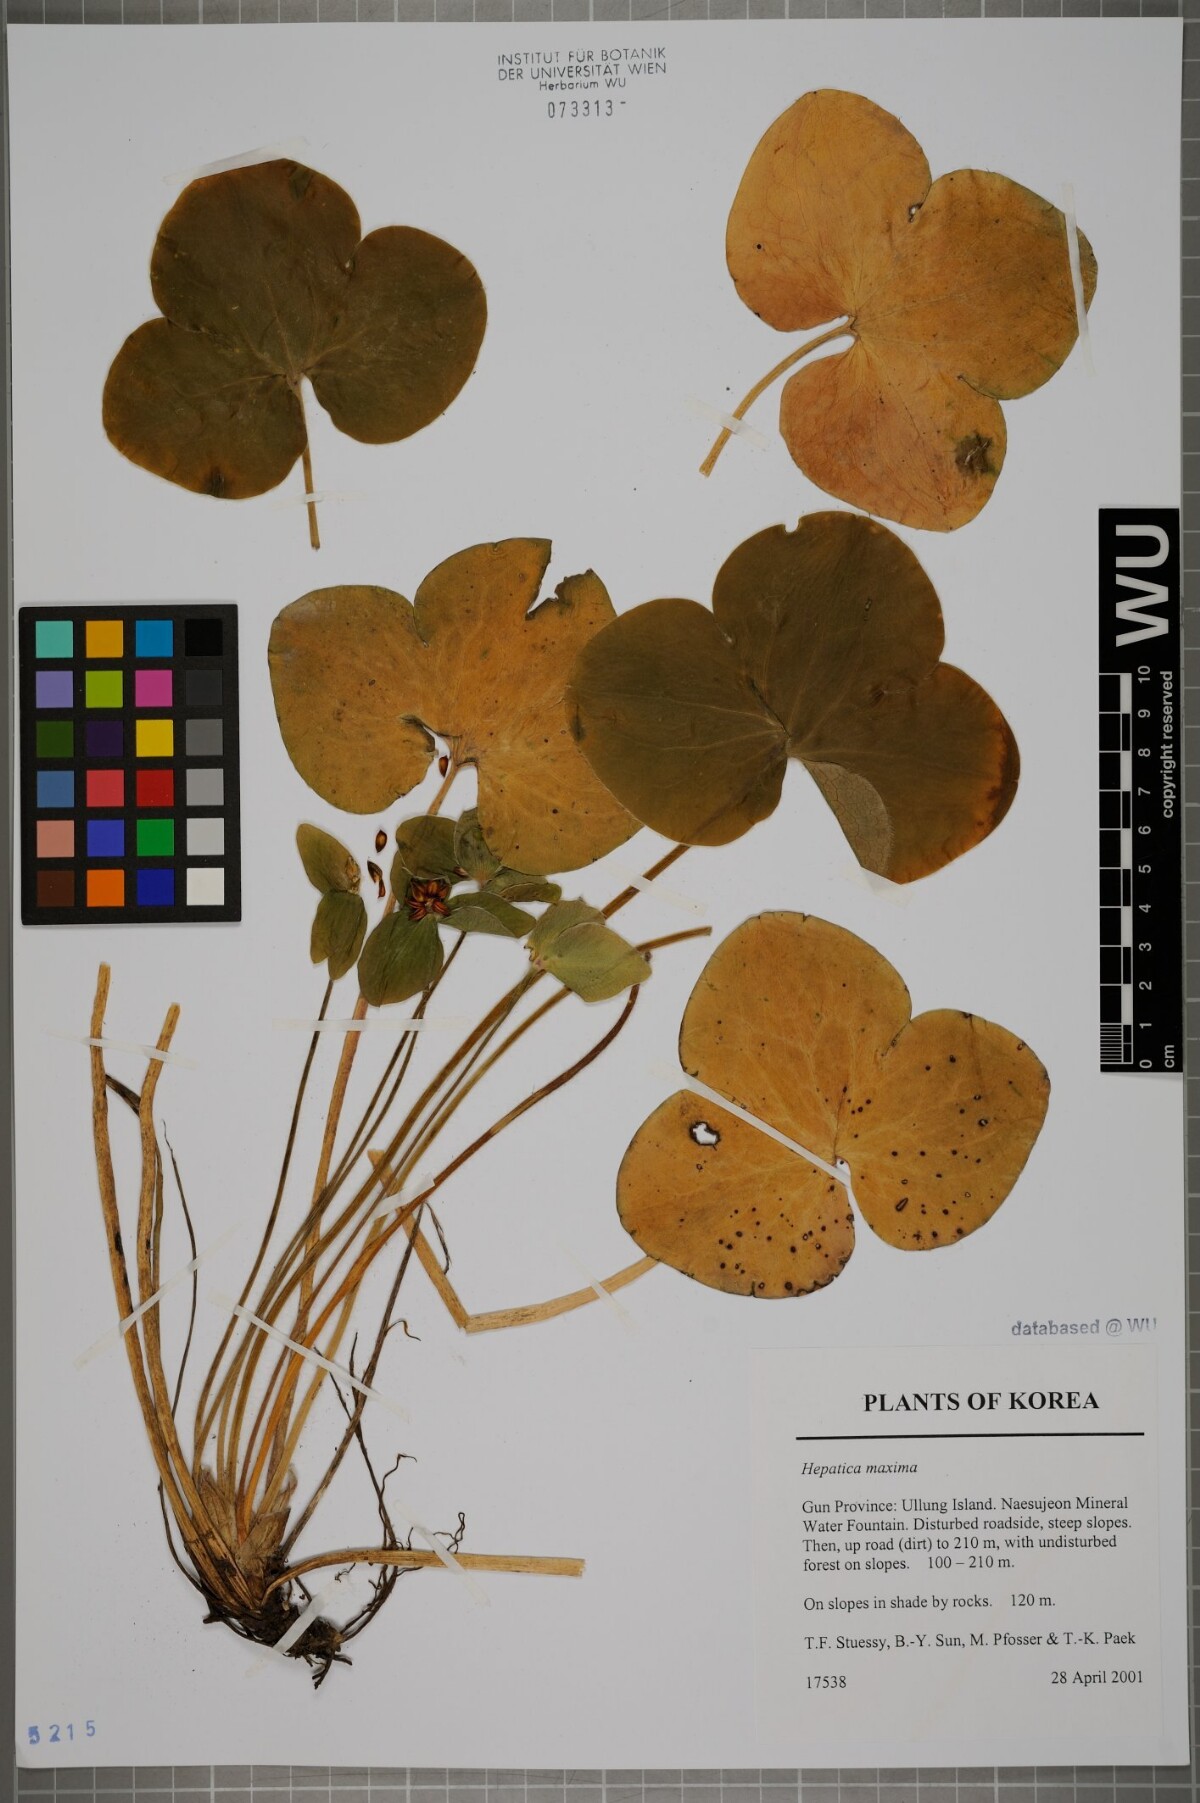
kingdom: Plantae
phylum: Tracheophyta
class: Magnoliopsida
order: Ranunculales
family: Ranunculaceae
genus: Hepatica
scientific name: Hepatica maxima
